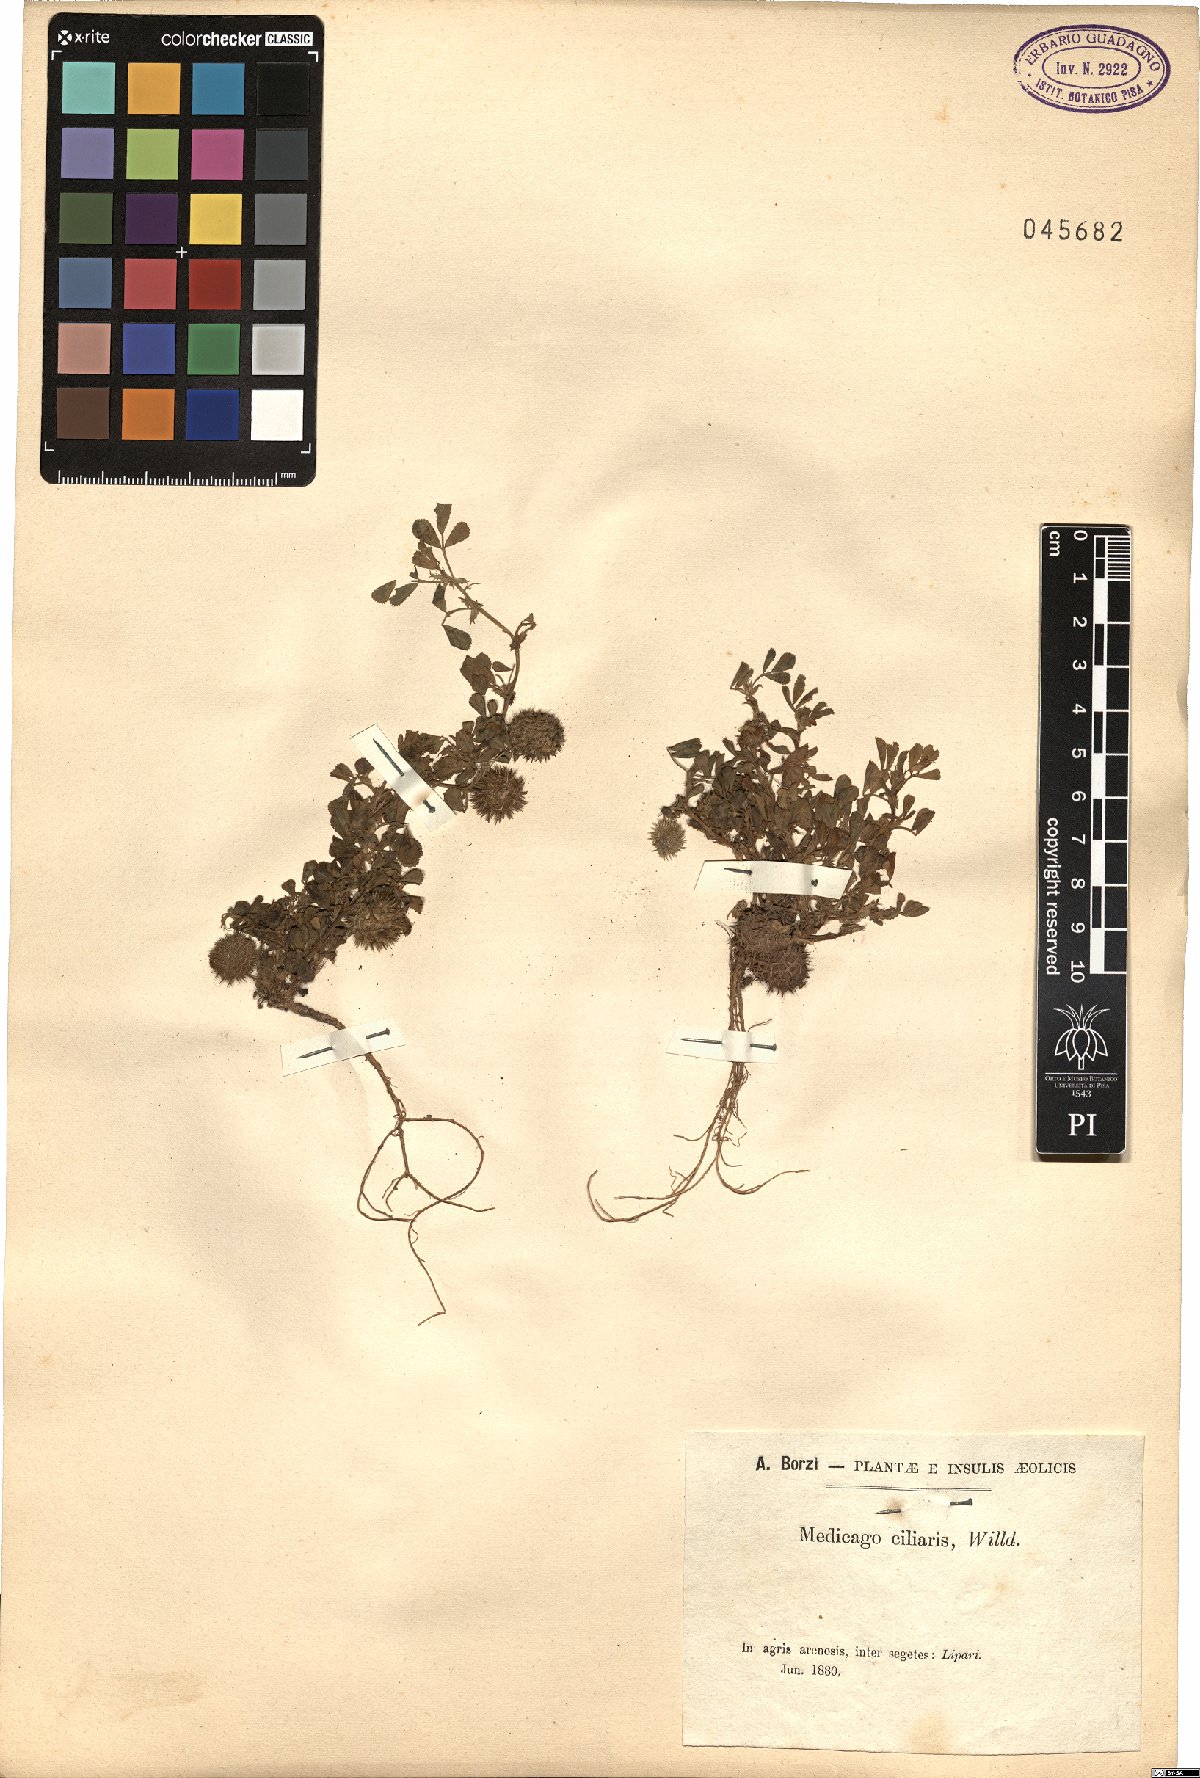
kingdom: Plantae
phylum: Tracheophyta
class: Magnoliopsida
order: Fabales
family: Fabaceae
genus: Medicago
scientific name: Medicago ciliaris
